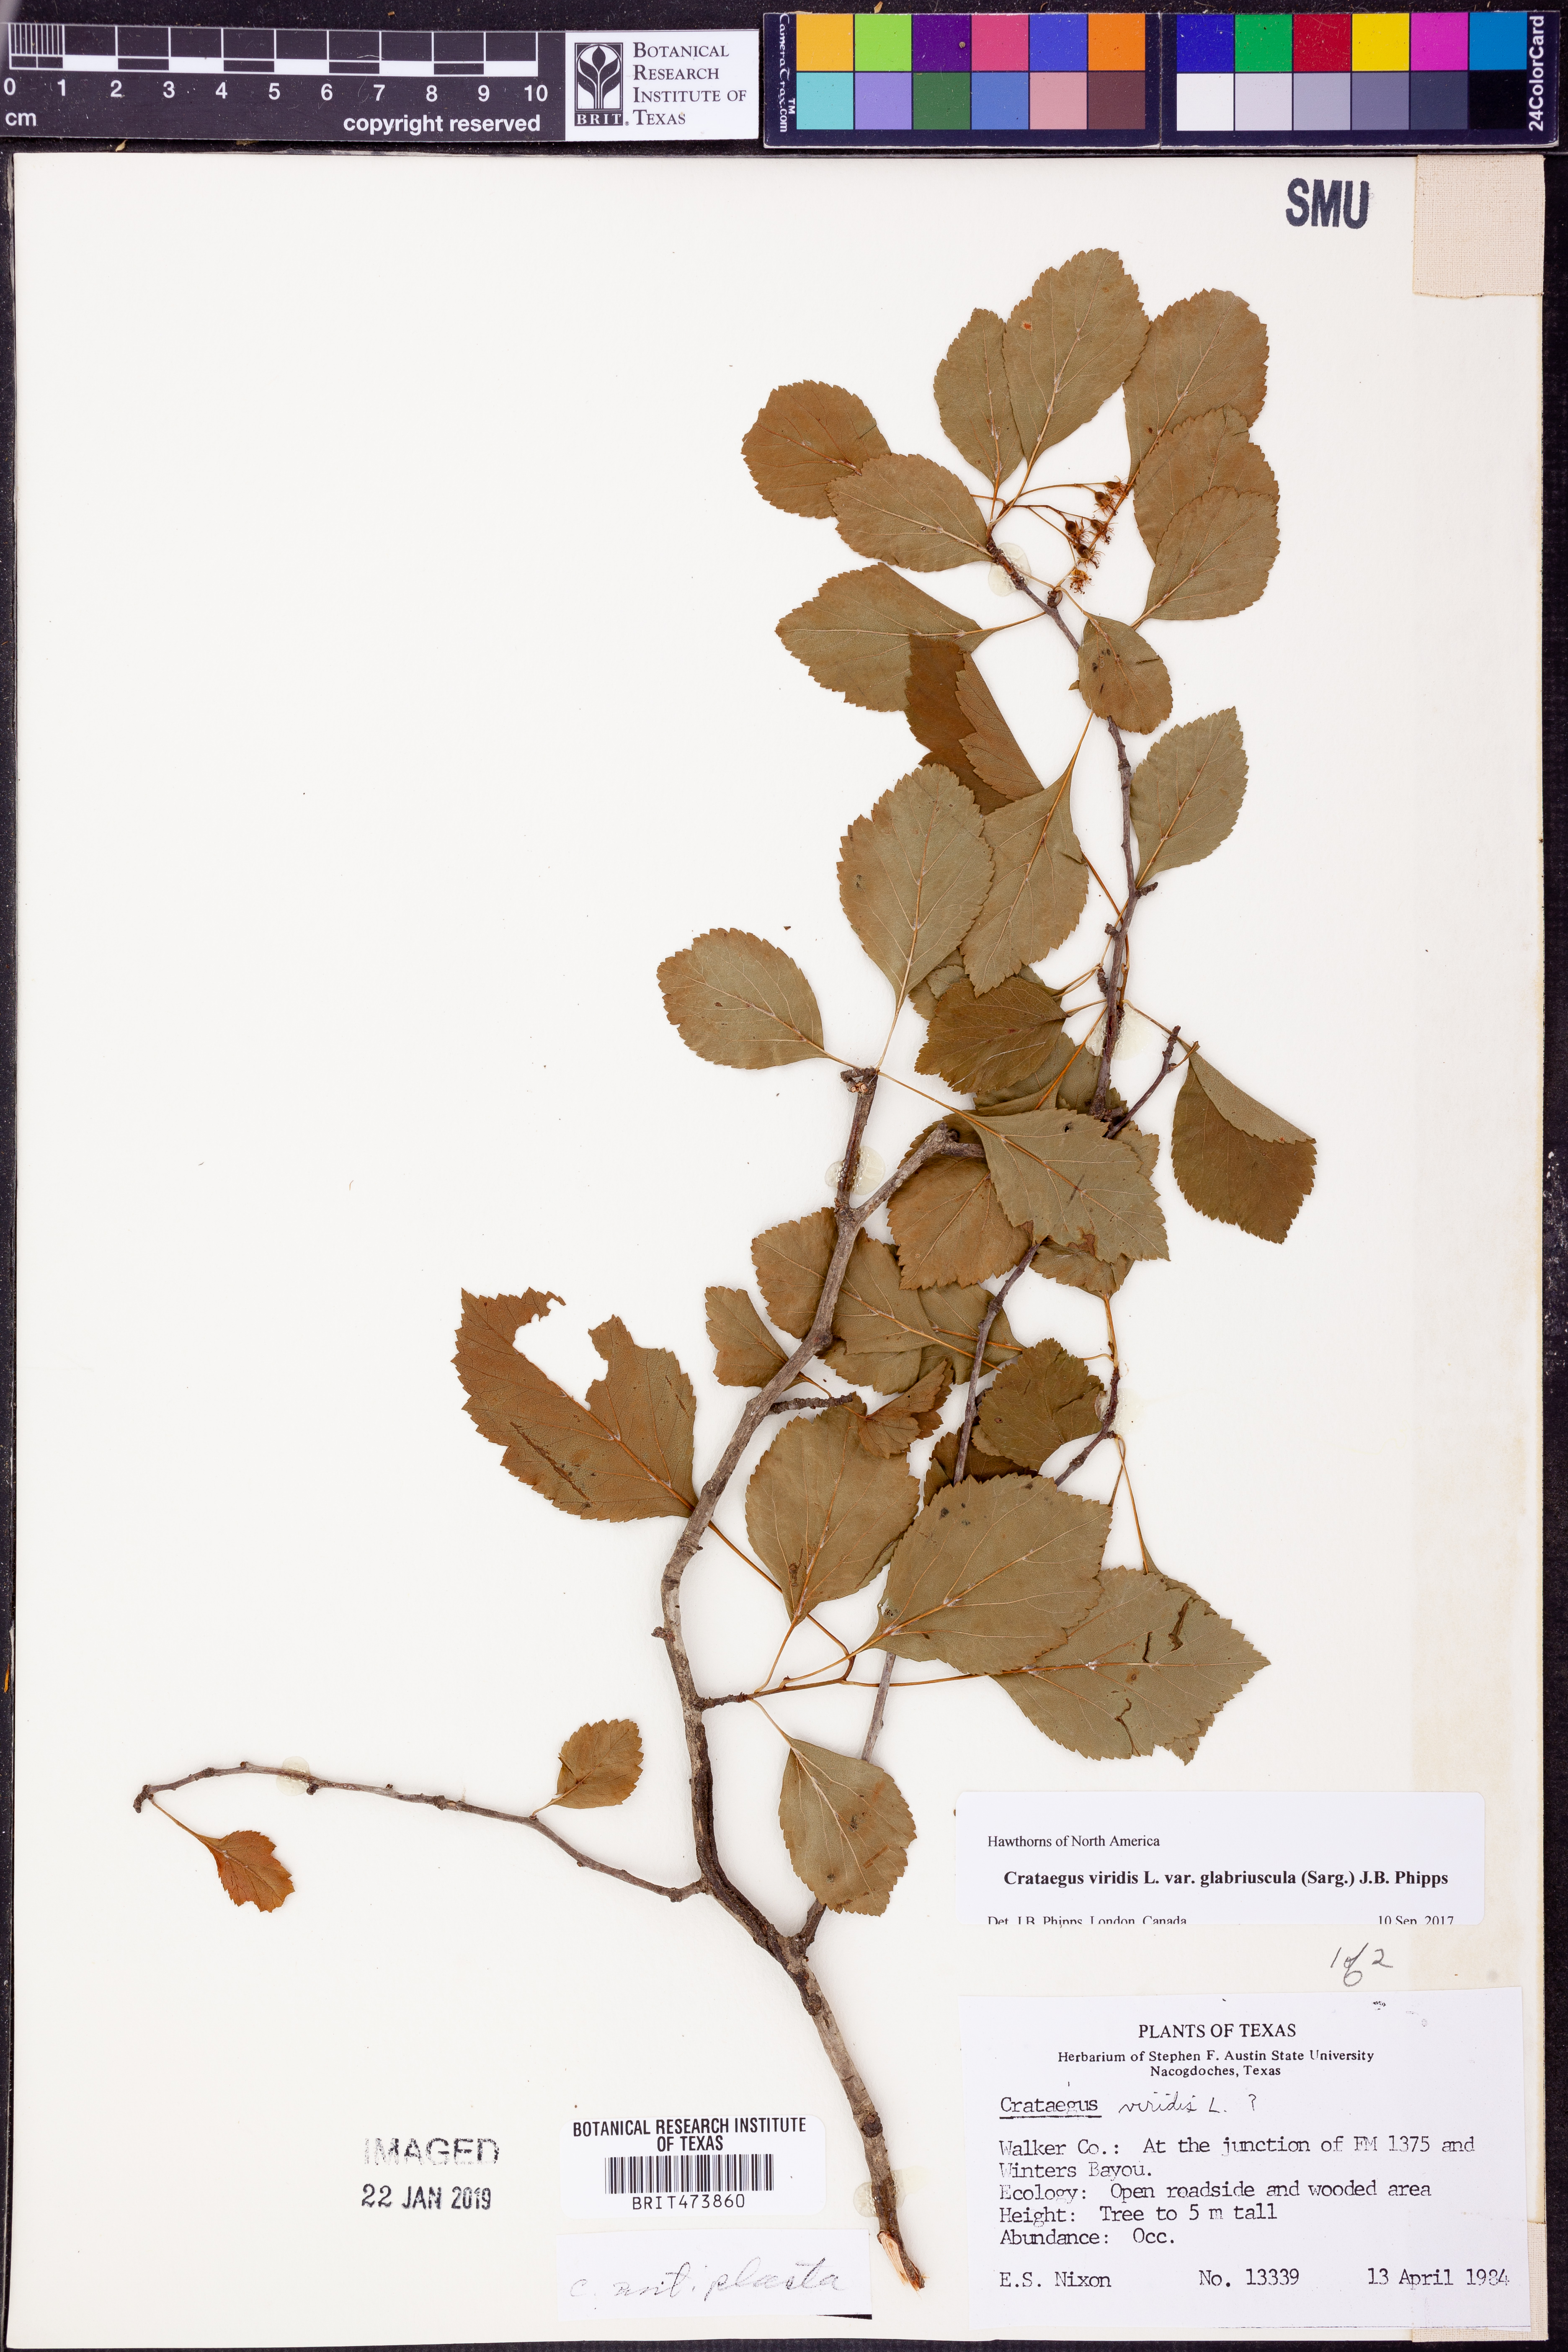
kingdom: Plantae
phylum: Tracheophyta
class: Magnoliopsida
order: Rosales
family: Rosaceae
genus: Crataegus
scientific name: Crataegus viridis
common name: Southernthorn
